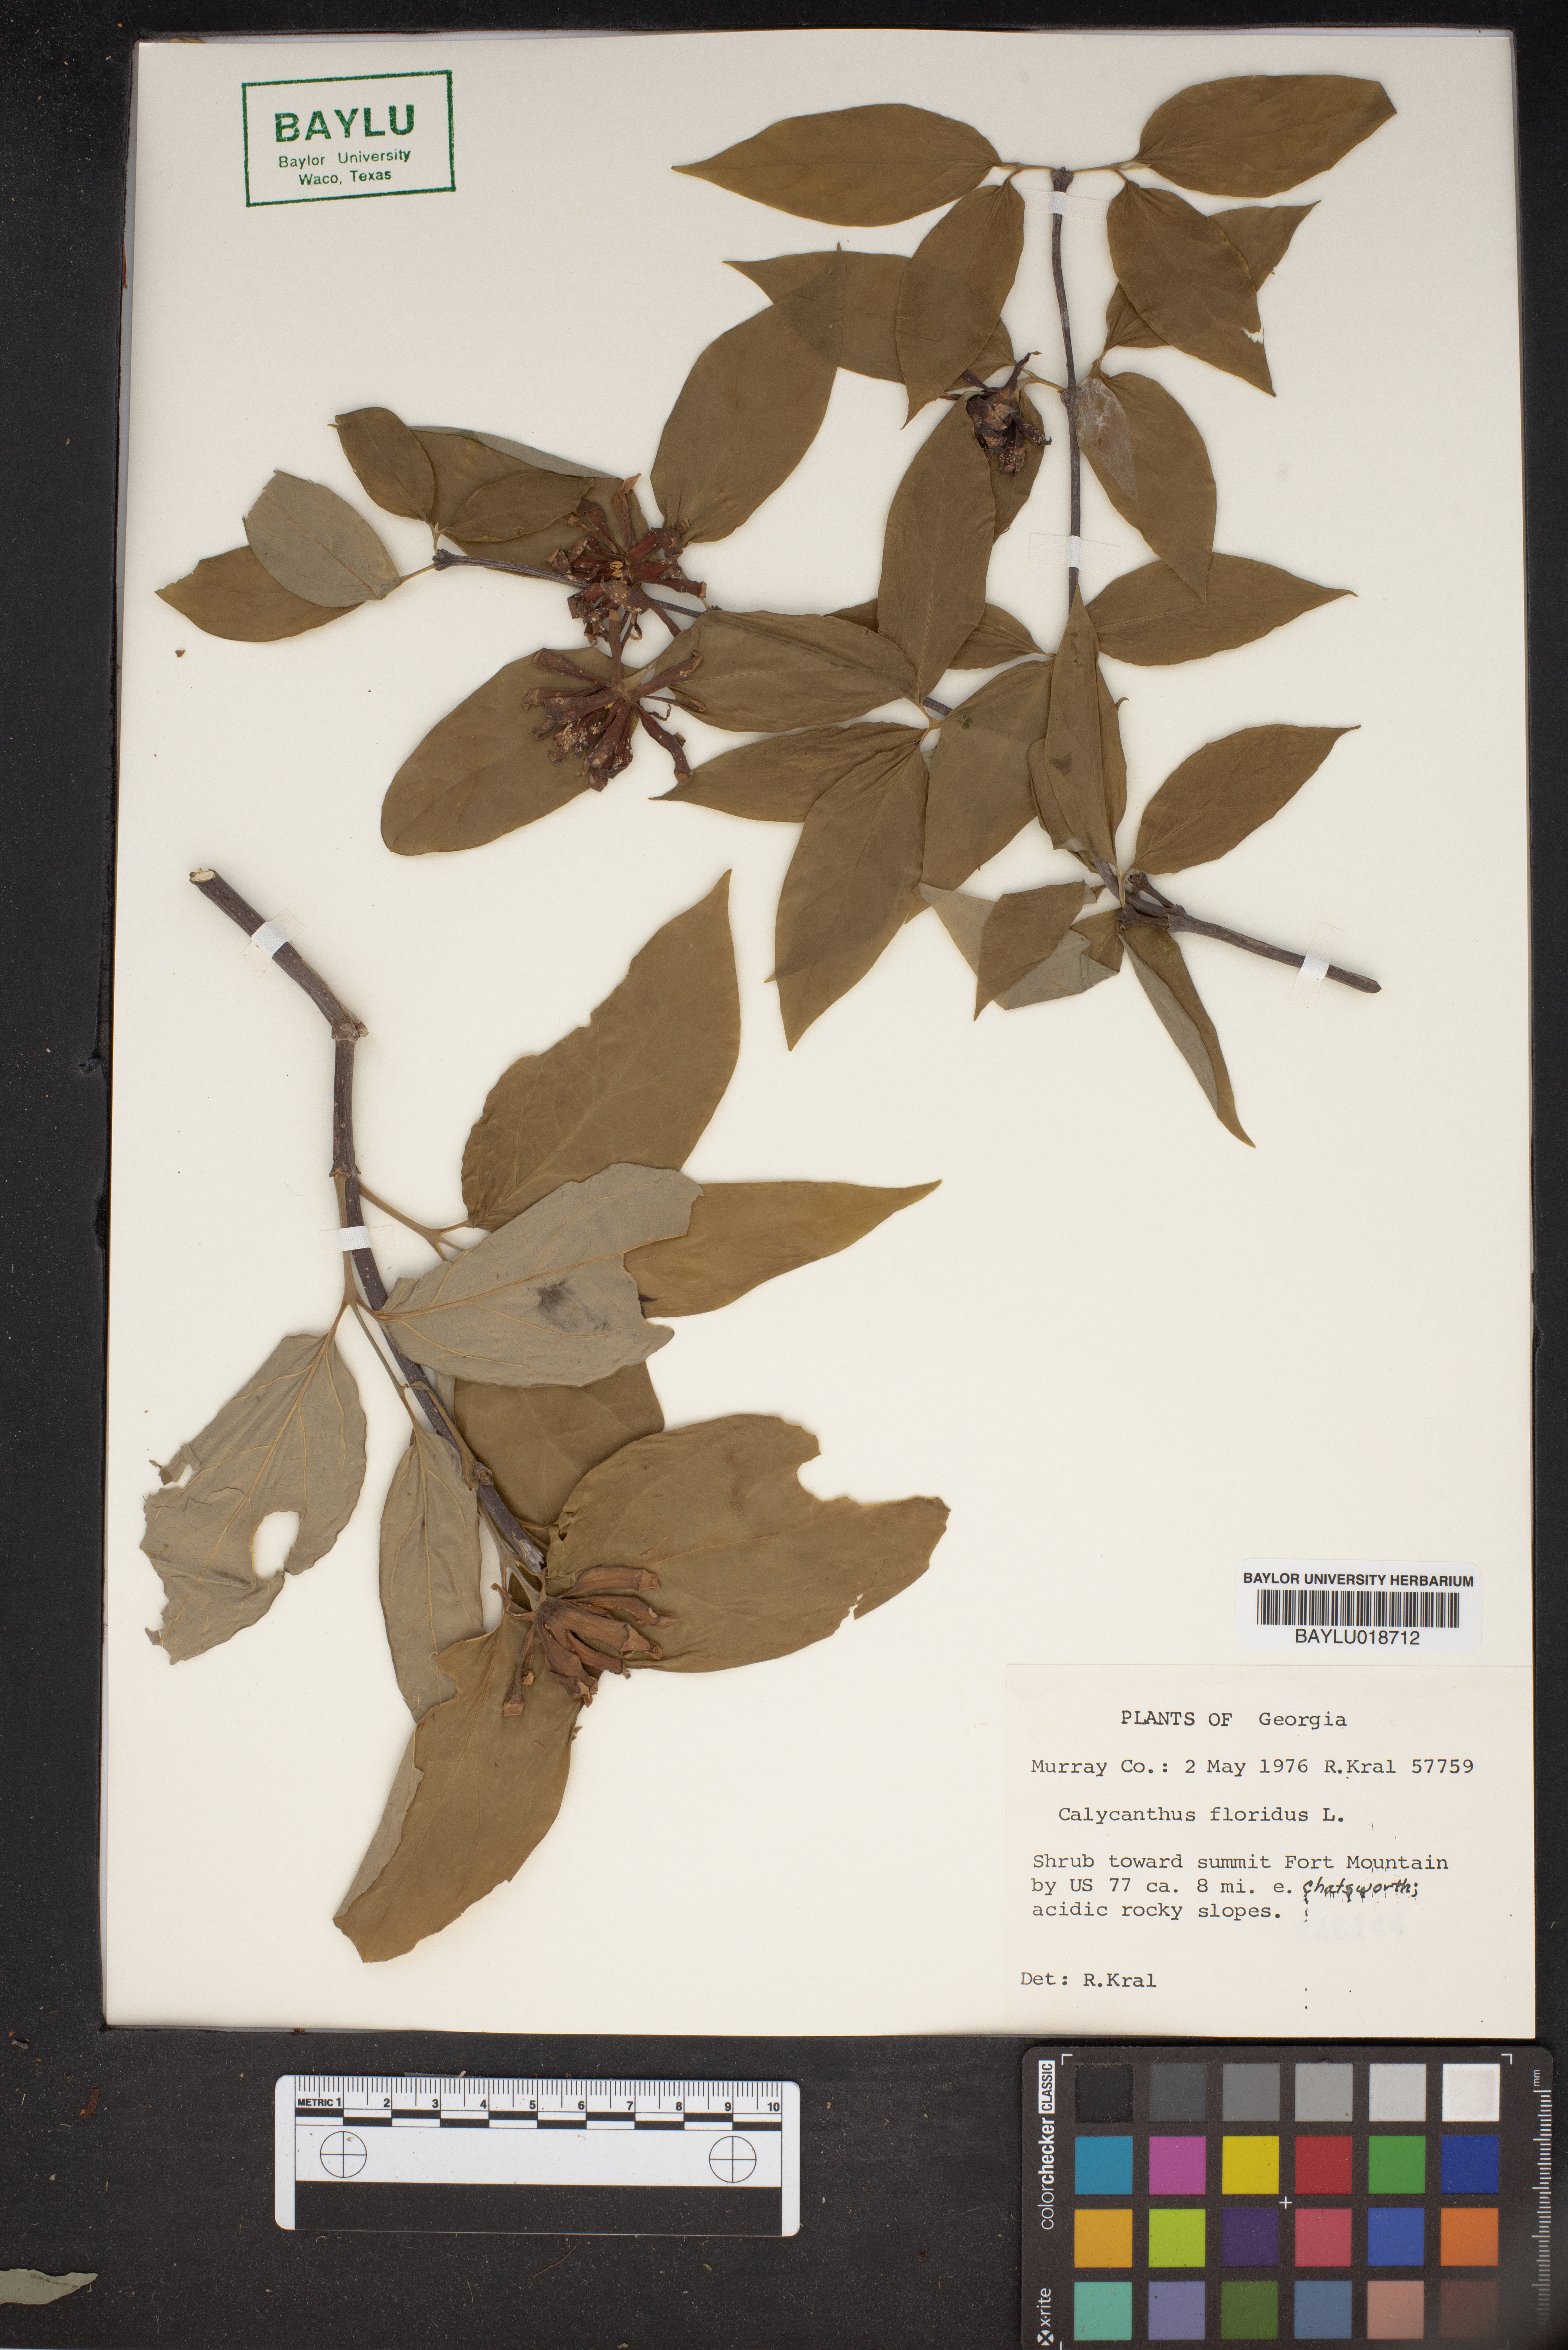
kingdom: Plantae
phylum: Tracheophyta
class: Magnoliopsida
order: Laurales
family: Calycanthaceae
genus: Calycanthus
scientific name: Calycanthus floridus
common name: Carolina-allspice
